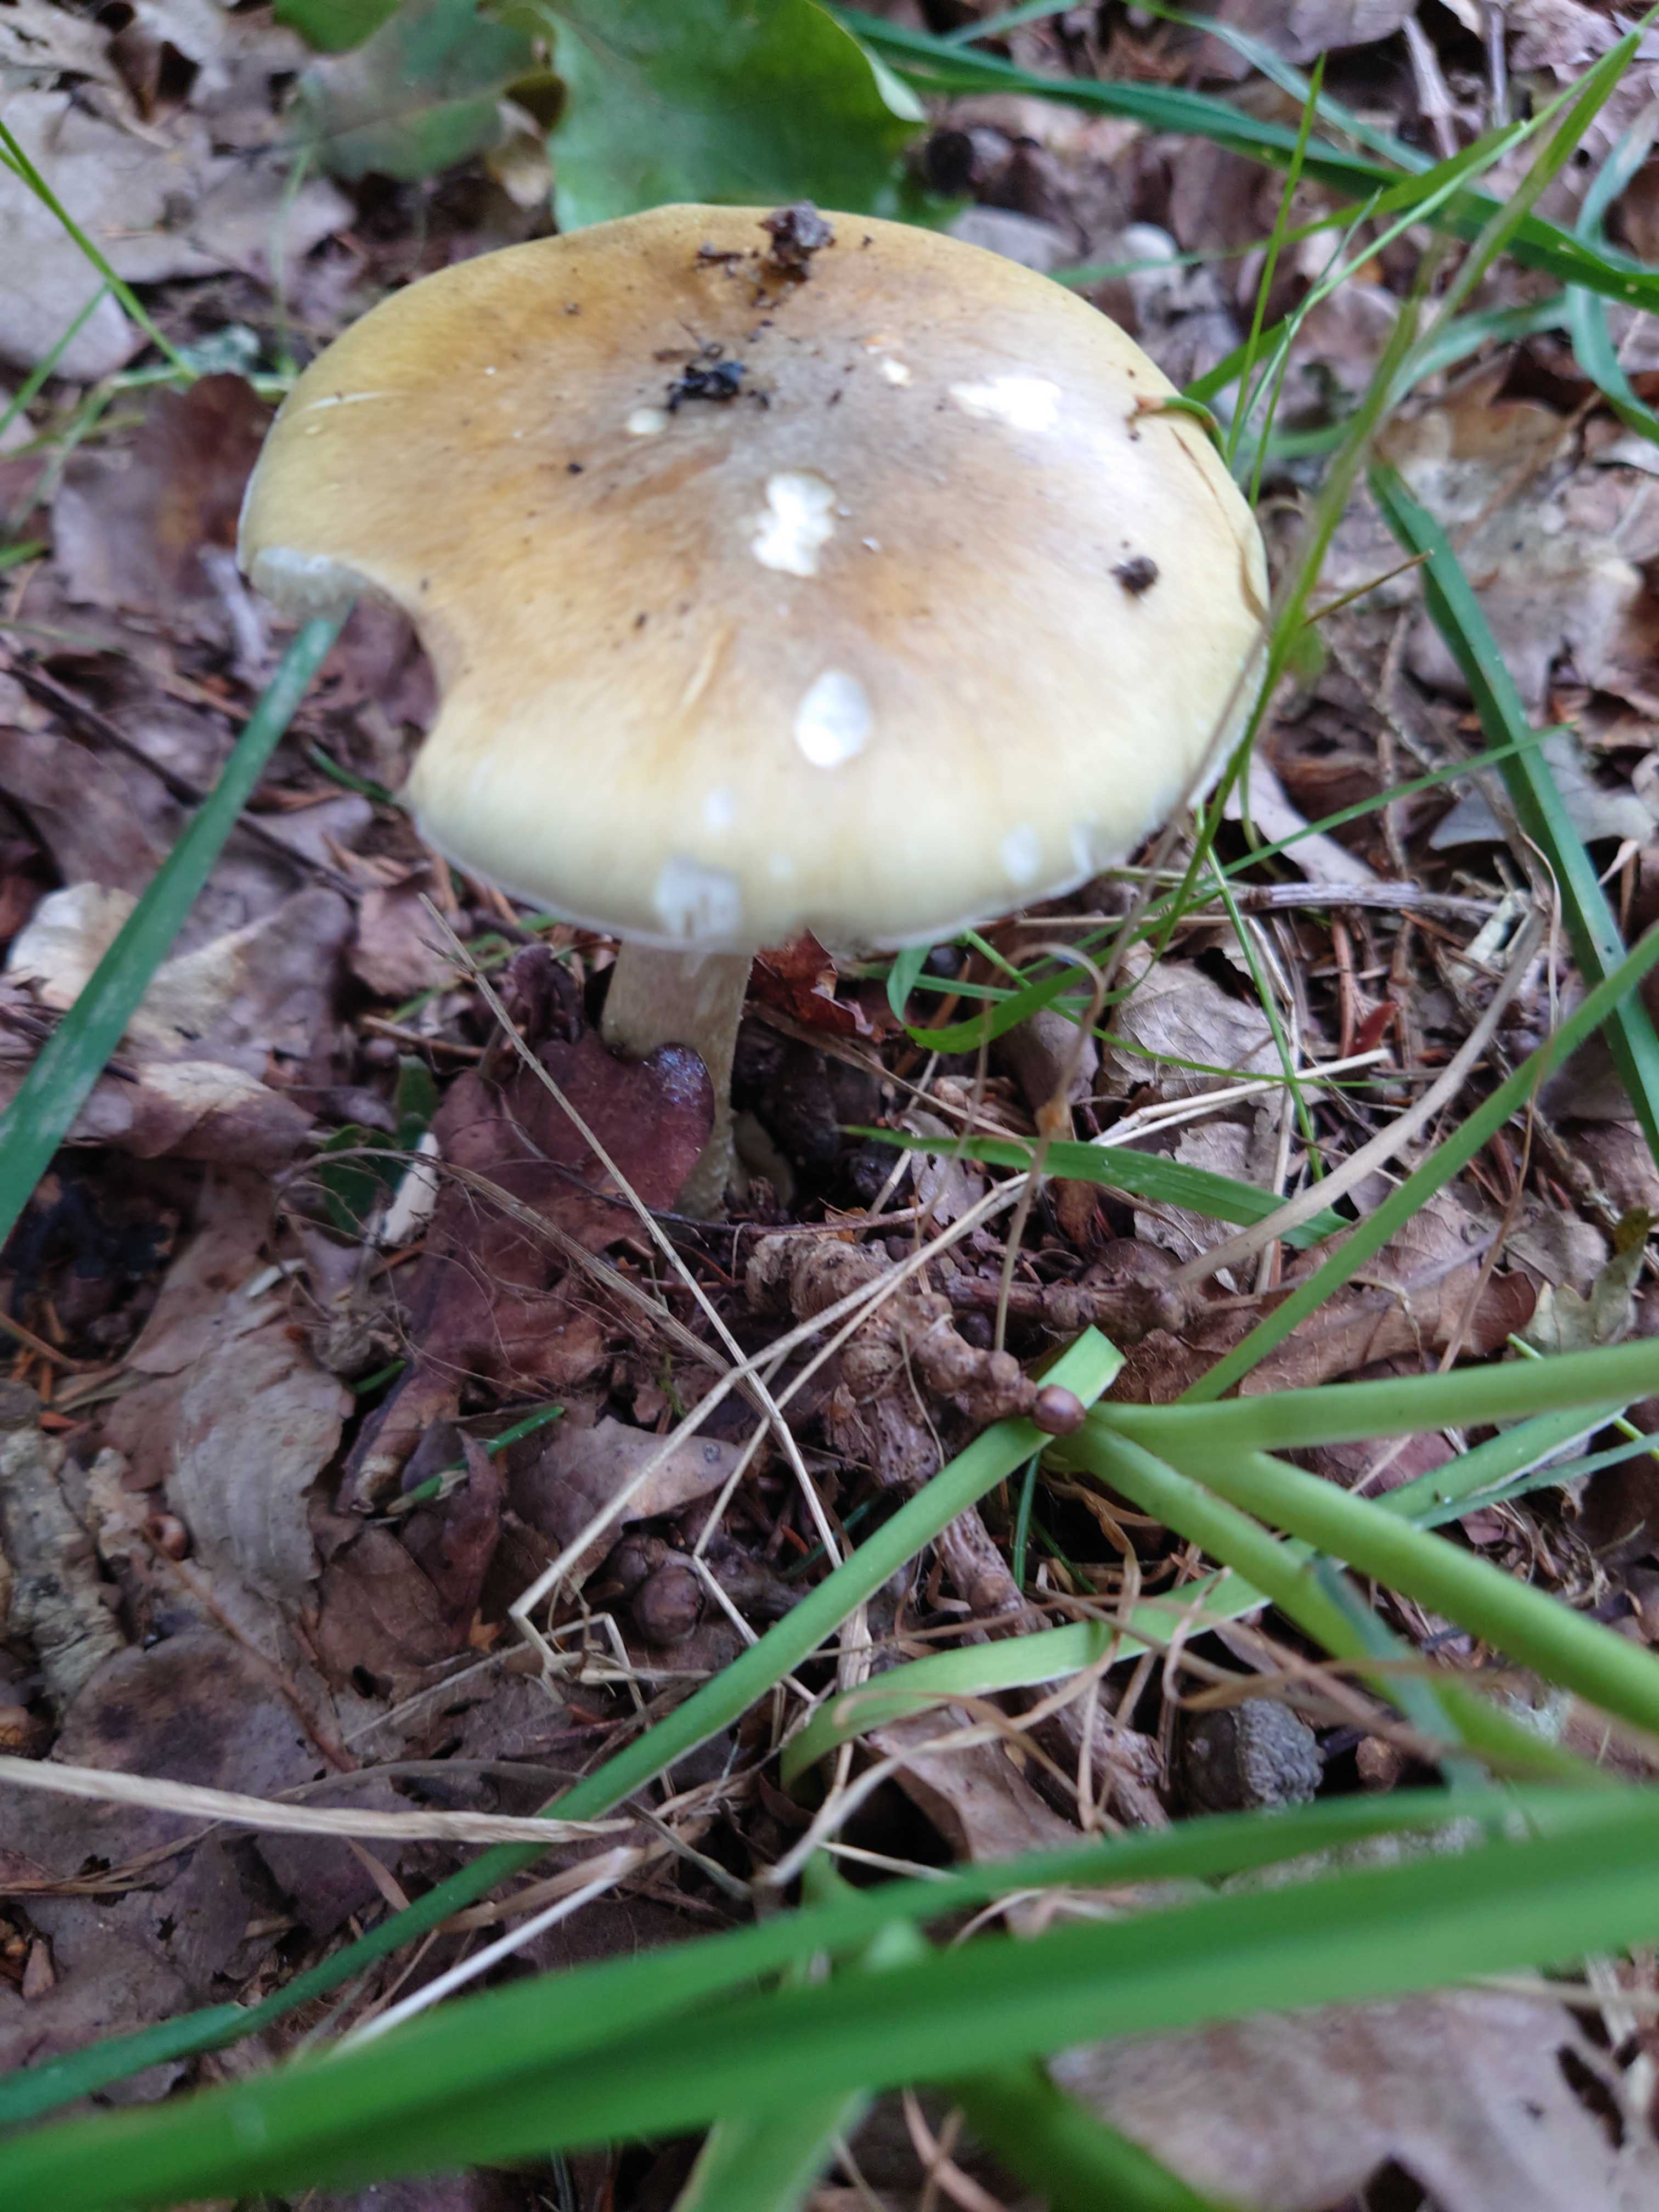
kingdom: Fungi
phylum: Basidiomycota
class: Agaricomycetes
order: Agaricales
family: Amanitaceae
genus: Amanita
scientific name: Amanita phalloides
